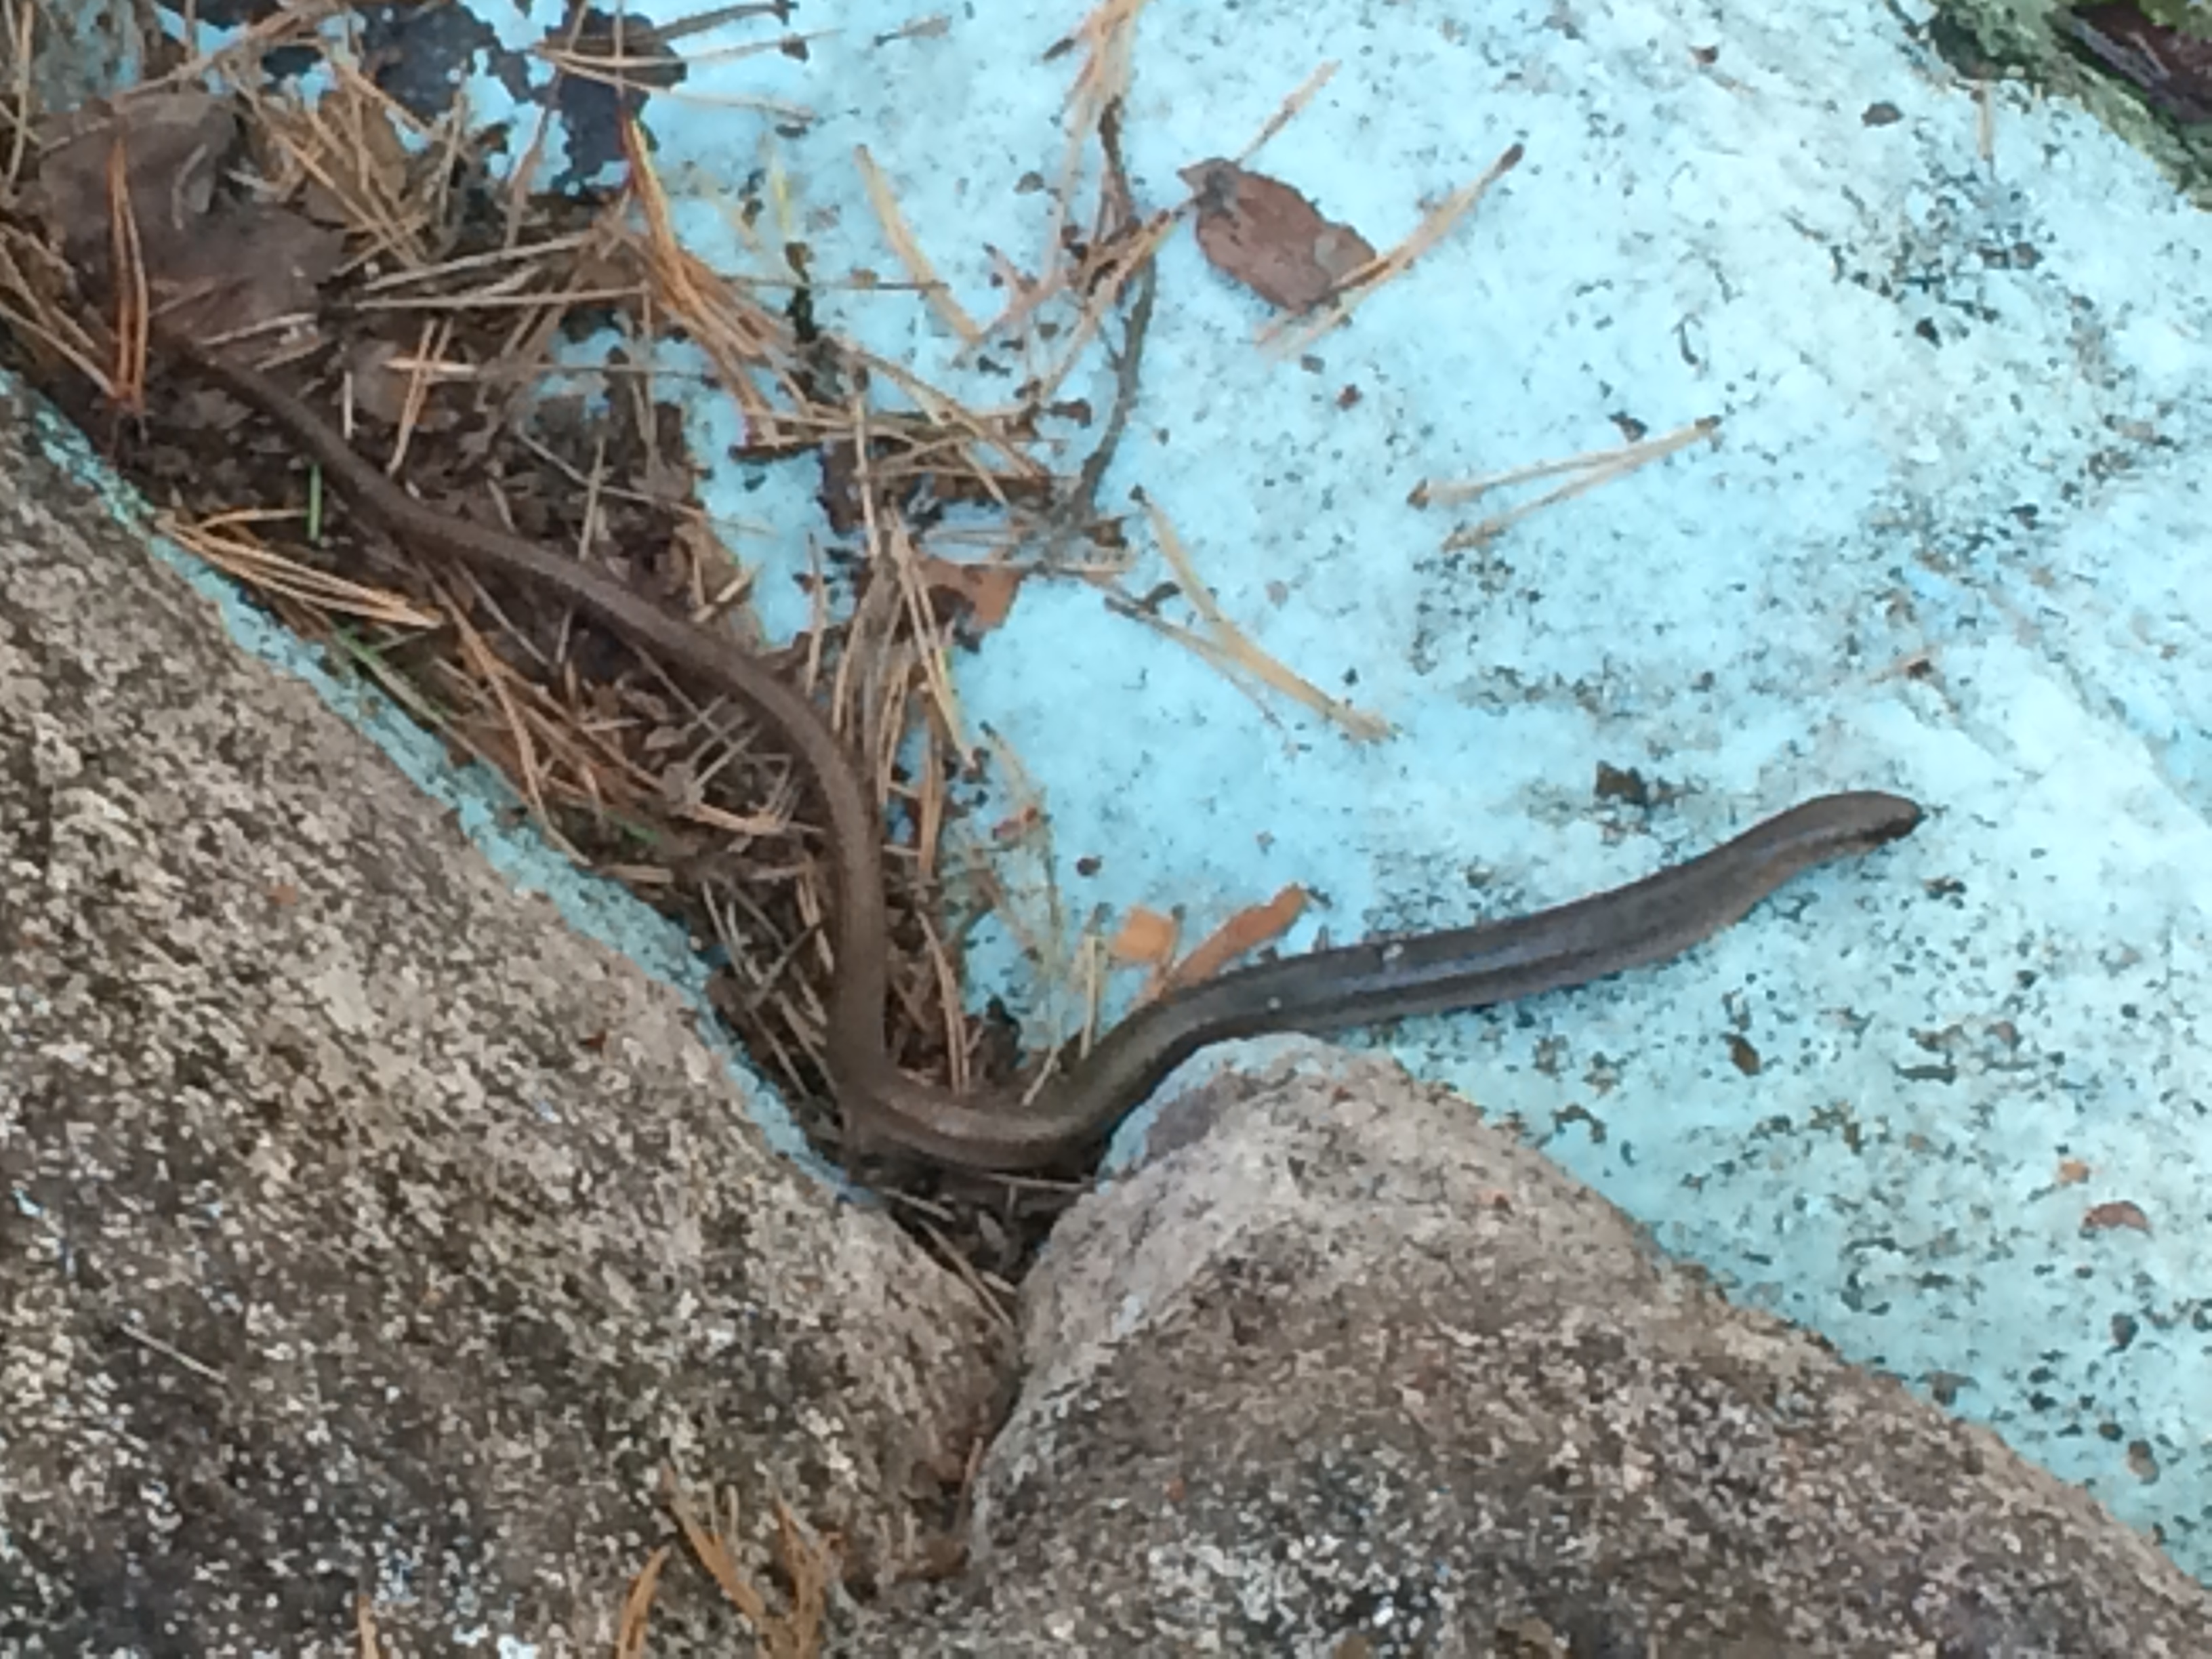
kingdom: Animalia
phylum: Chordata
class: Squamata
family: Anguidae
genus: Anguis
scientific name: Anguis colchica
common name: Slow worm
